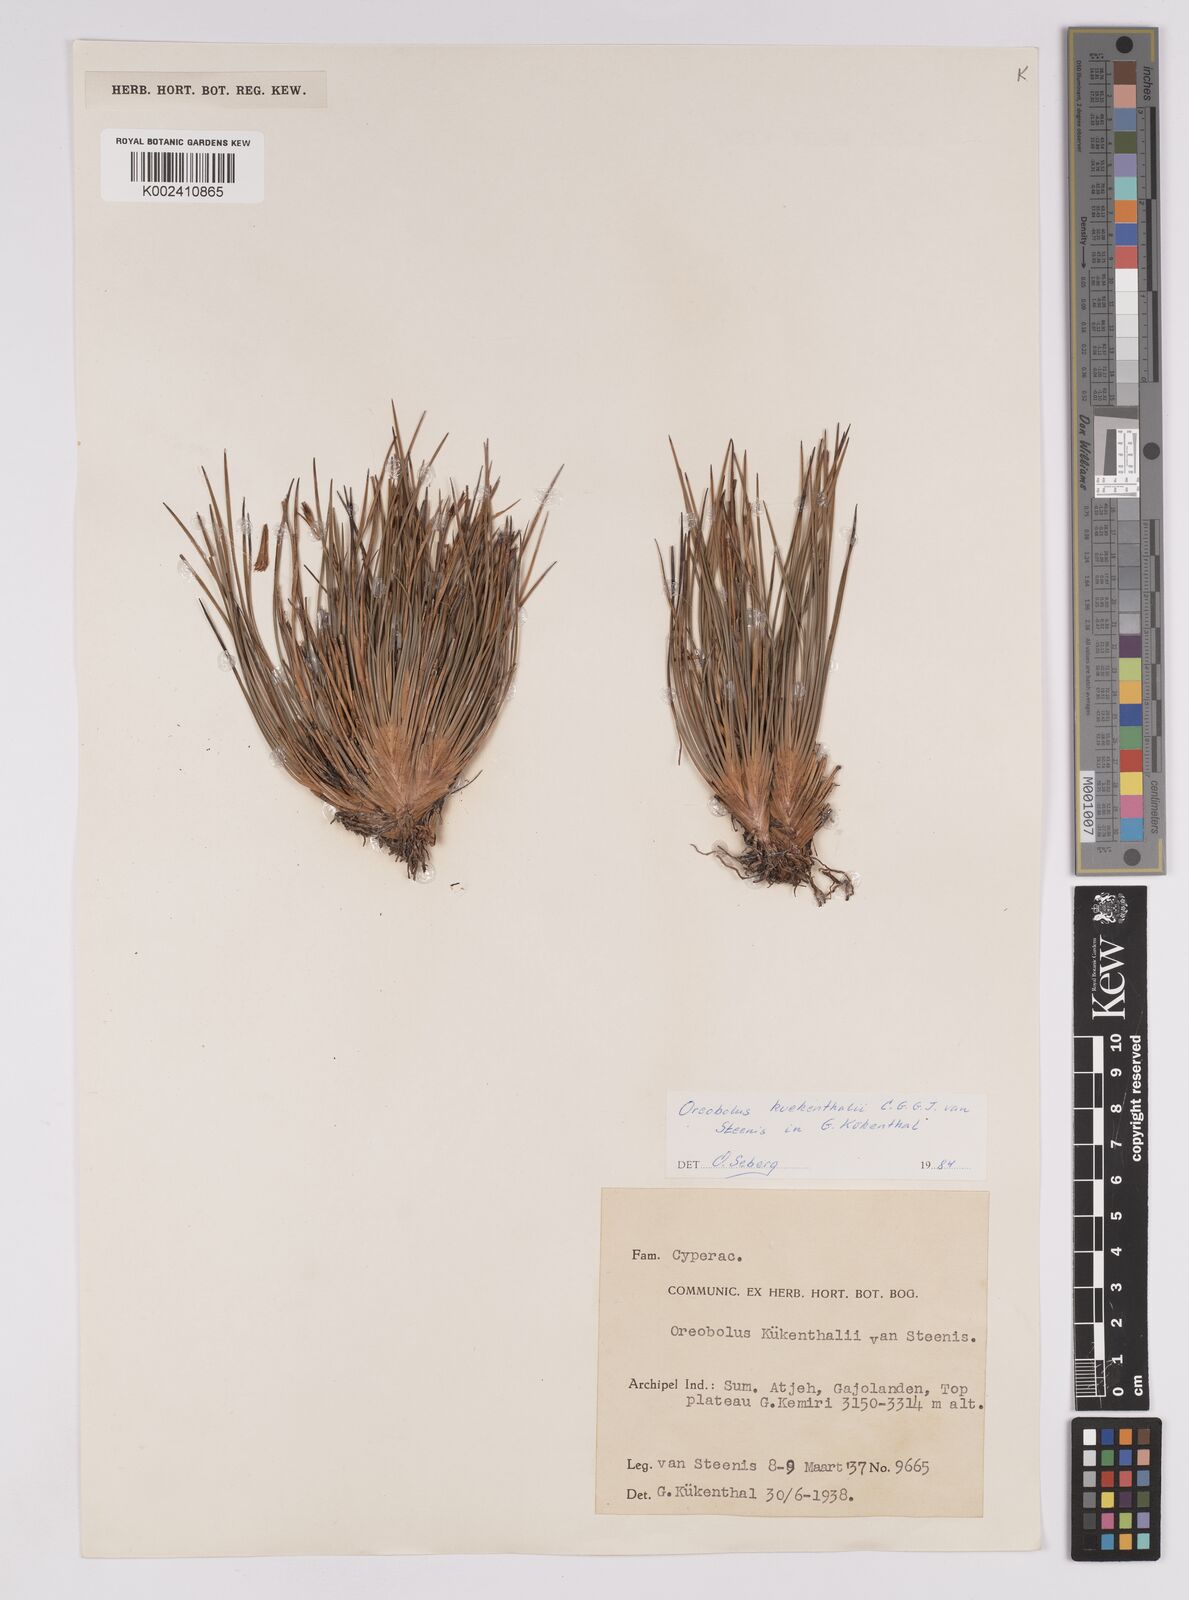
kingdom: Plantae
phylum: Tracheophyta
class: Liliopsida
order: Poales
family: Cyperaceae
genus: Oreobolus
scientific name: Oreobolus kuekenthalii
